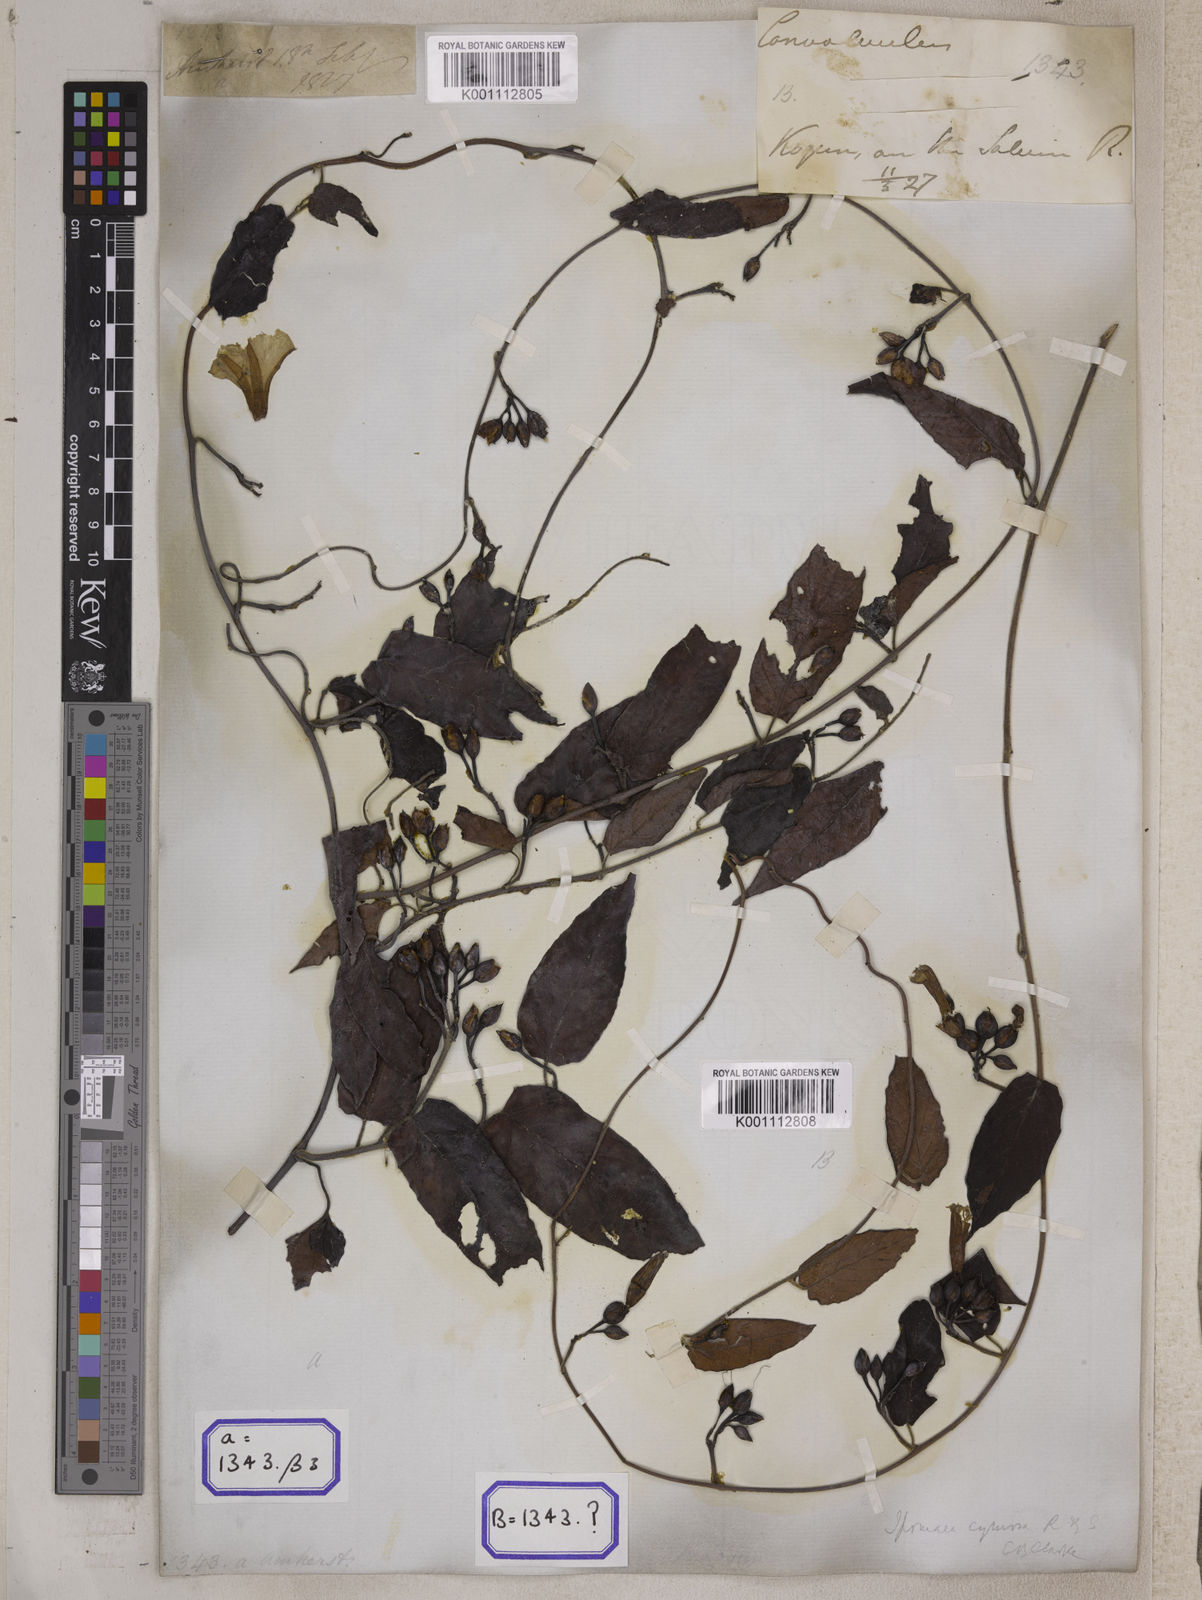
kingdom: Plantae
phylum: Tracheophyta
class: Magnoliopsida
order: Solanales
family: Convolvulaceae
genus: Convolvulus
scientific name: Convolvulus
